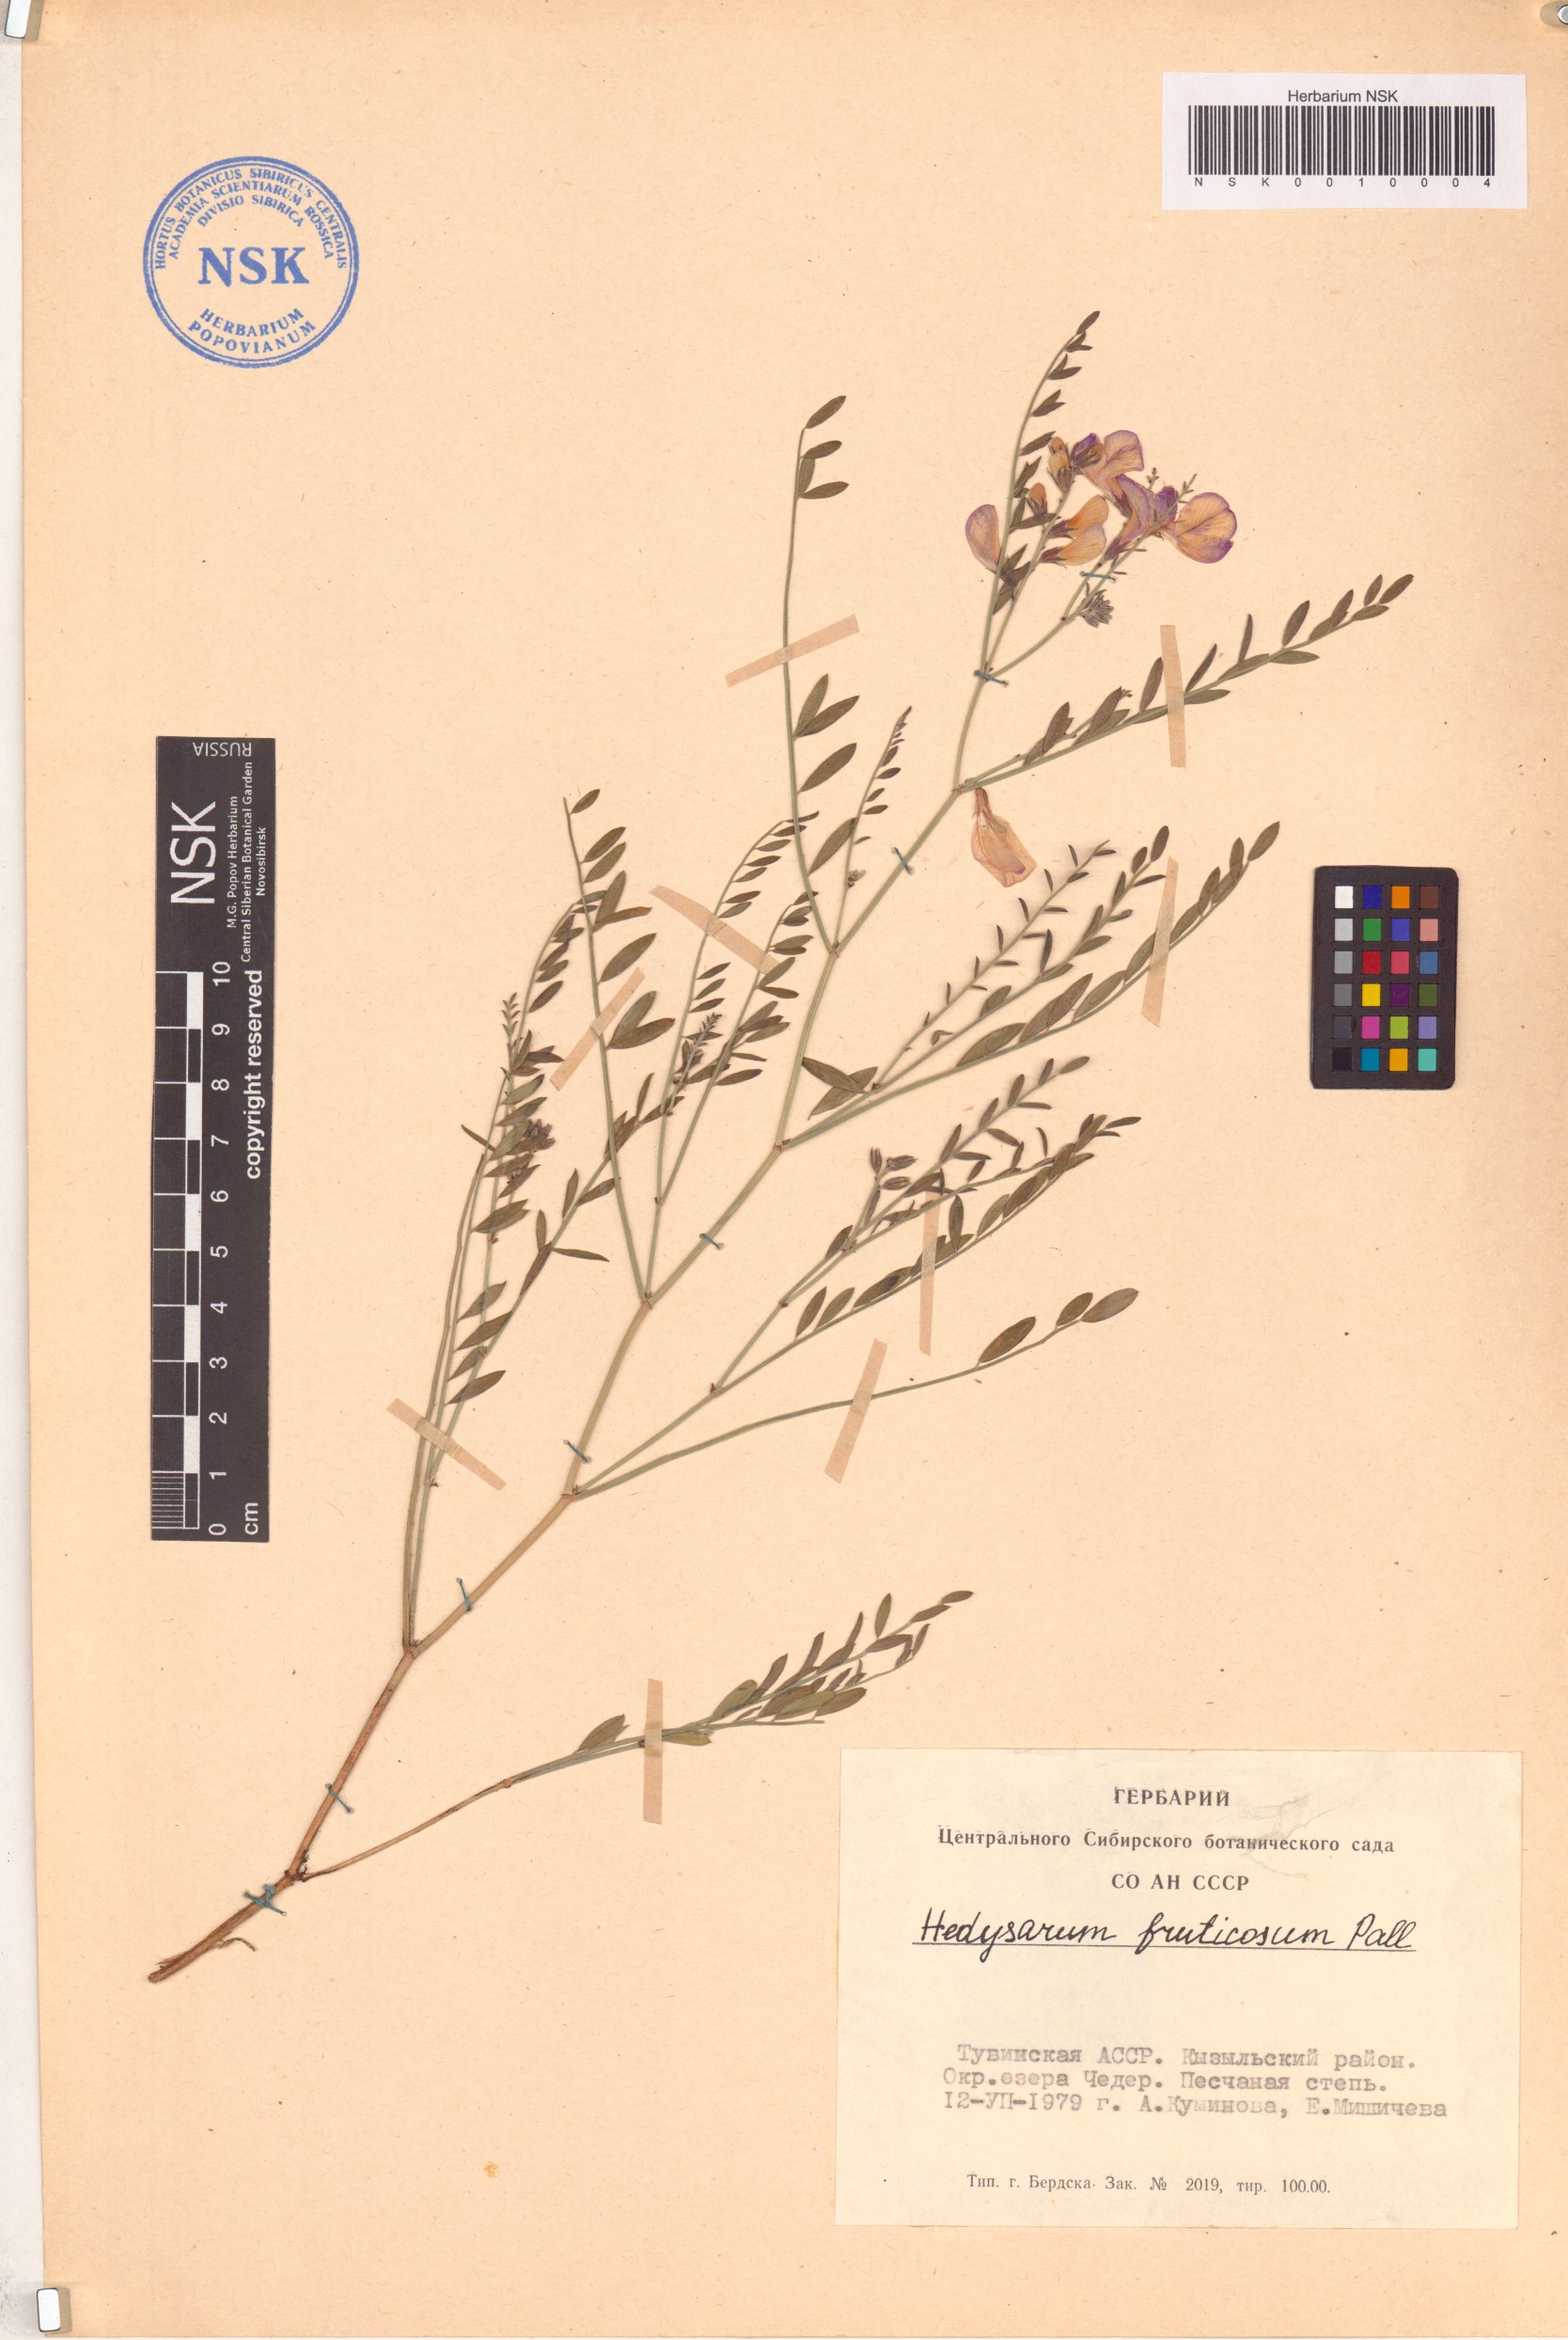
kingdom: Plantae
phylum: Tracheophyta
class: Magnoliopsida
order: Fabales
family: Fabaceae
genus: Corethrodendron
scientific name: Corethrodendron fruticosum
